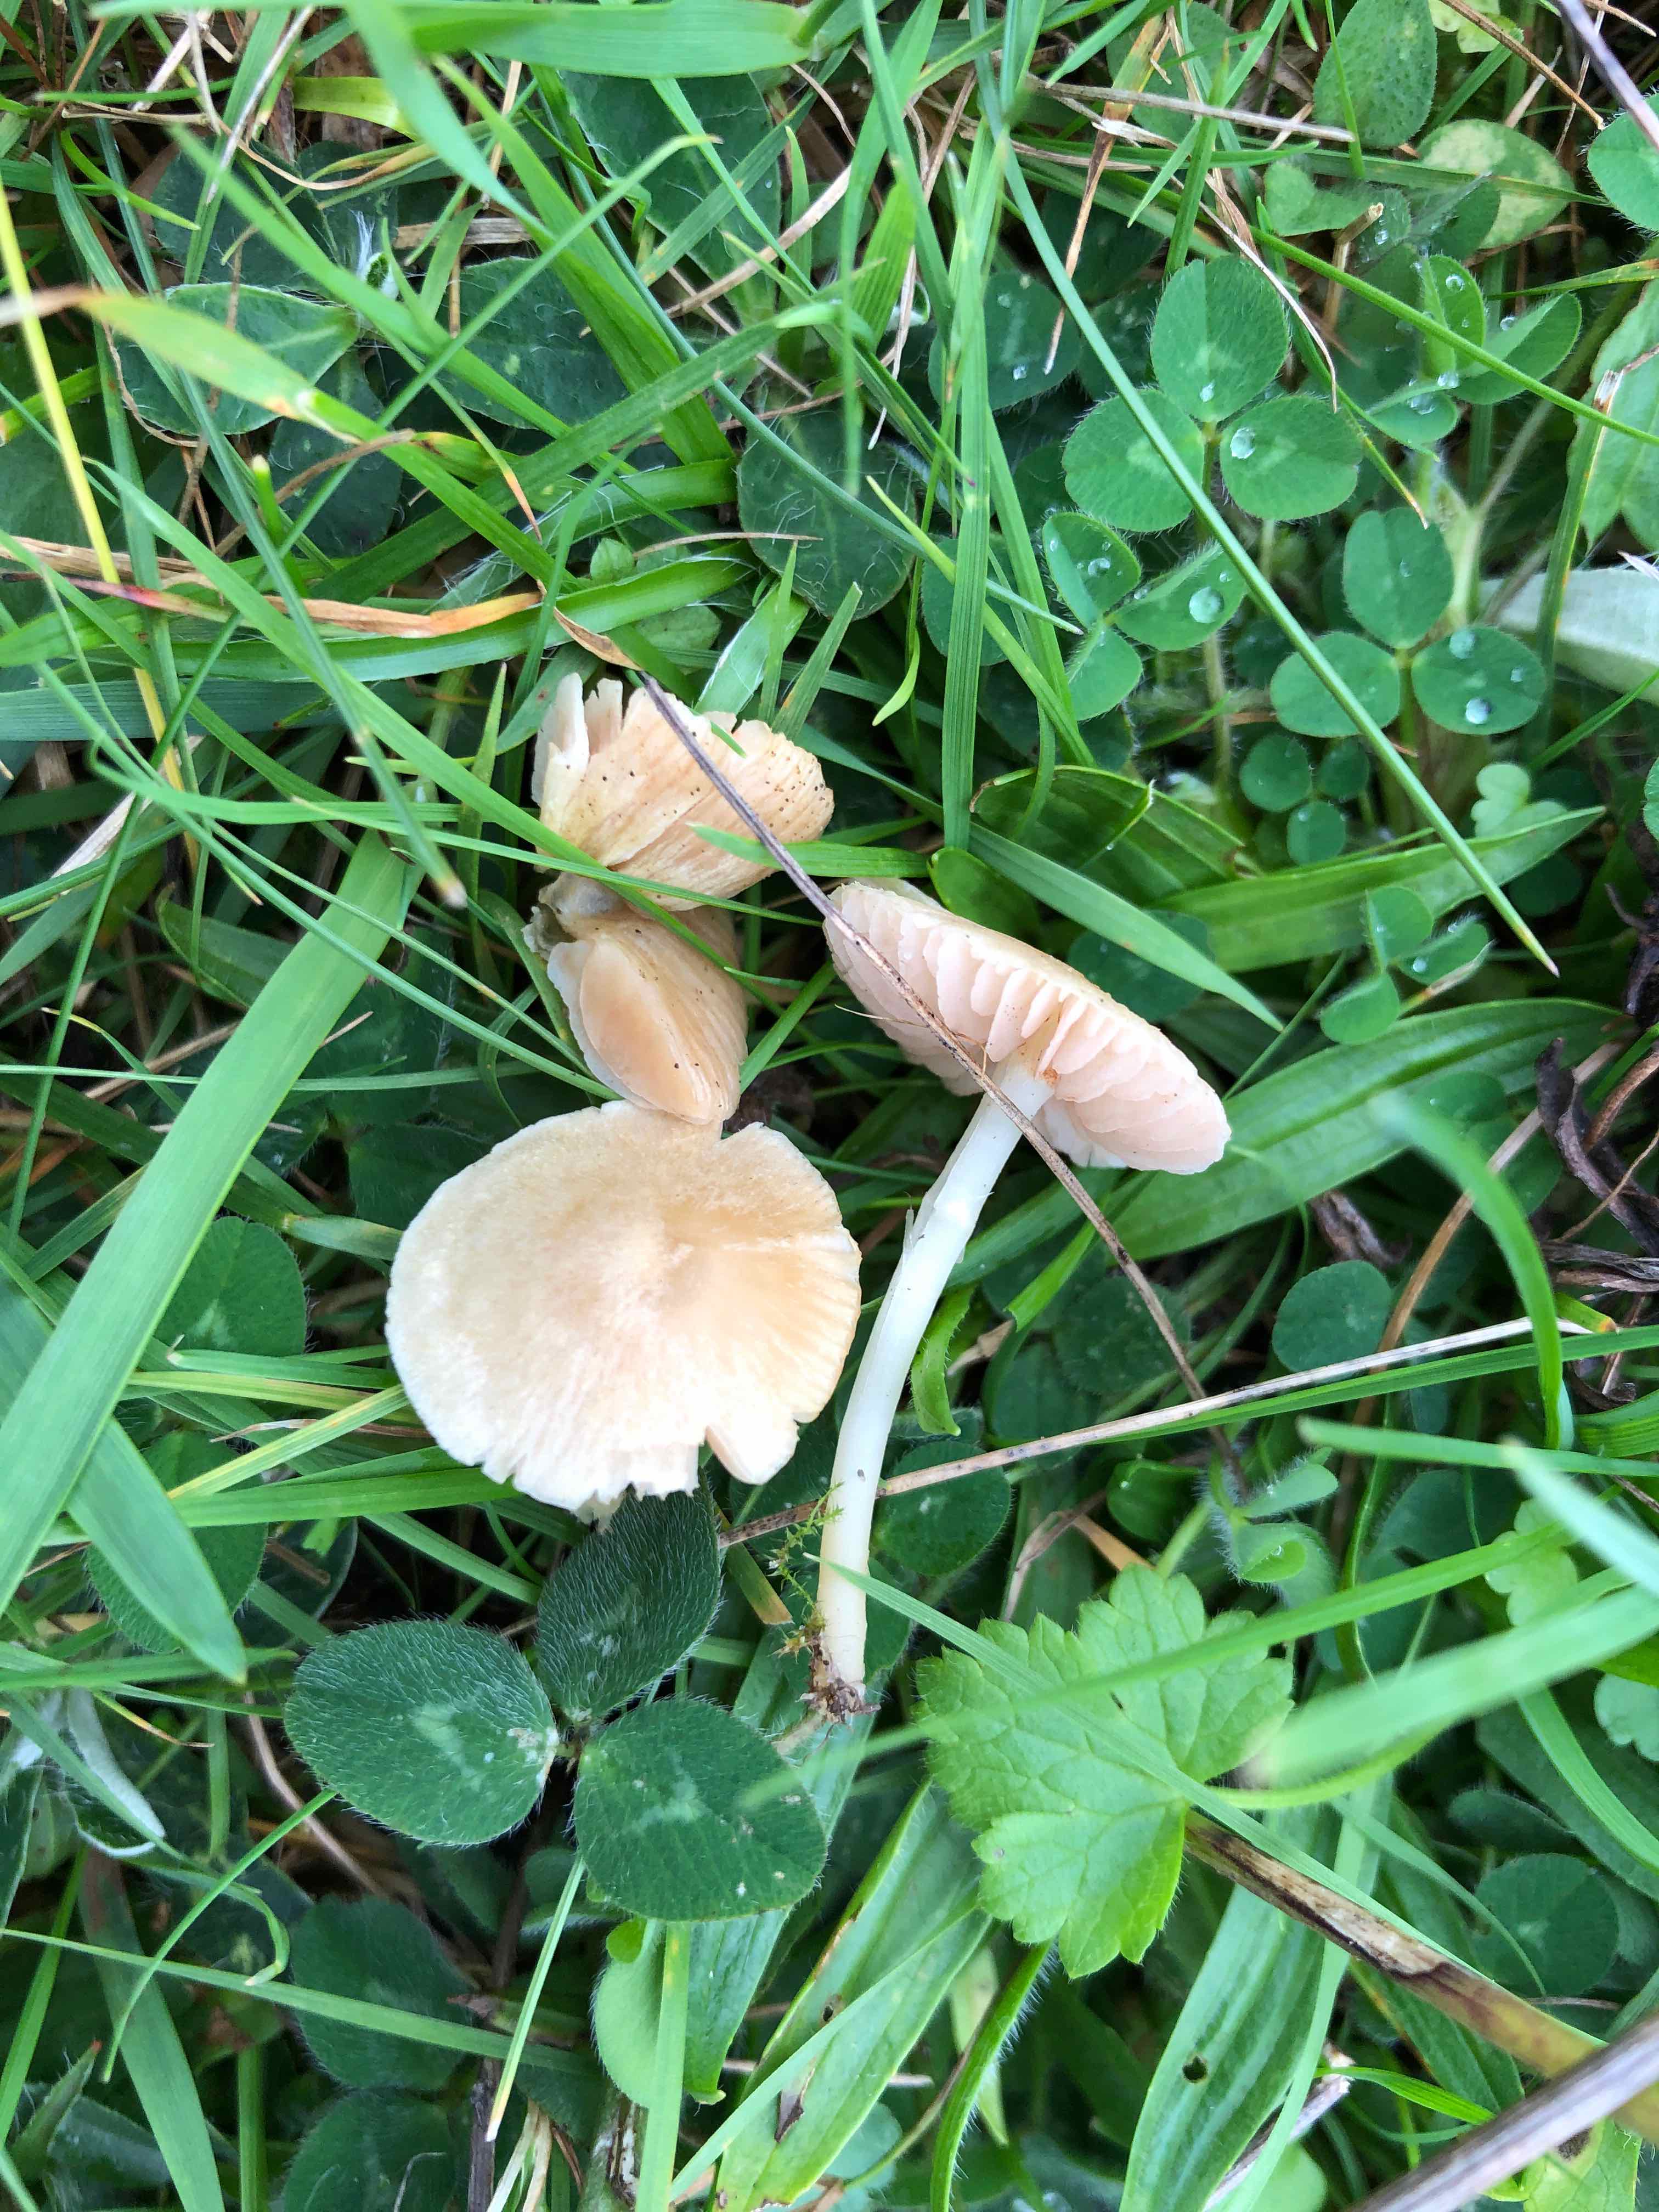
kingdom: Fungi
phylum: Basidiomycota
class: Agaricomycetes
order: Agaricales
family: Entolomataceae
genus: Entoloma
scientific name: Entoloma sericellum
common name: silkehvid rødblad
